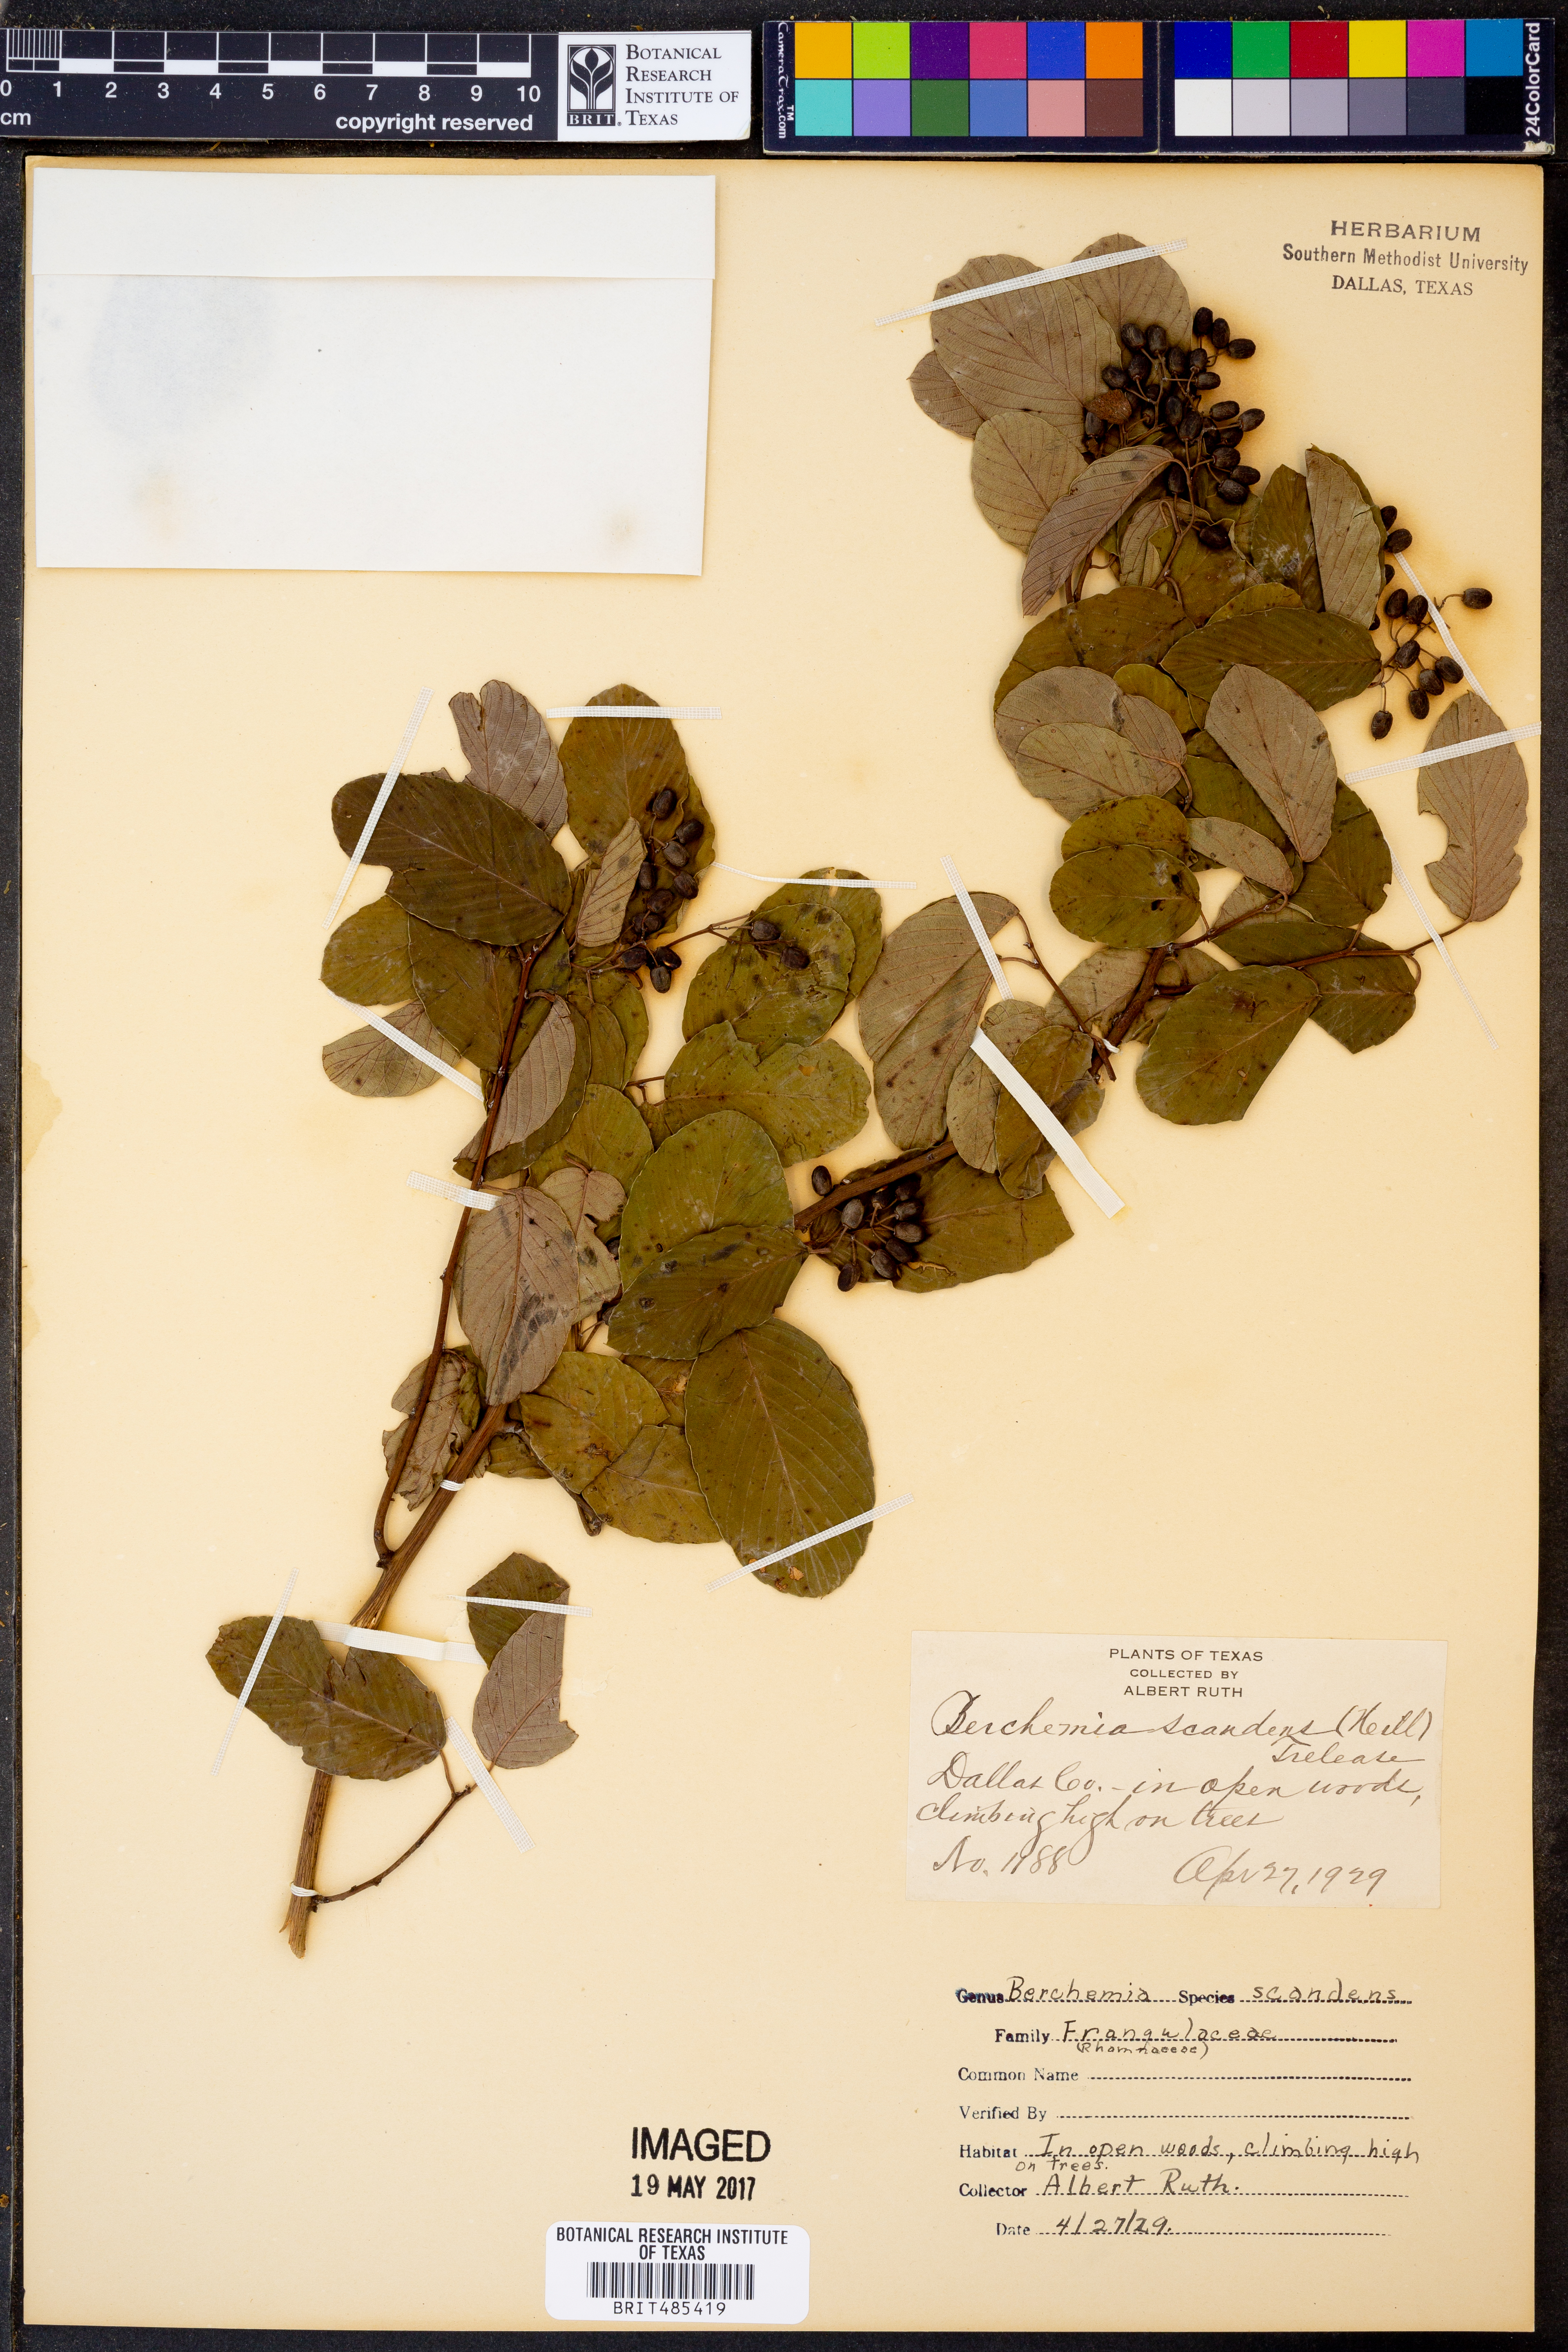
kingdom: Plantae
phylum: Tracheophyta
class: Magnoliopsida
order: Rosales
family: Rhamnaceae
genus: Berchemia
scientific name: Berchemia scandens
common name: Supplejack
